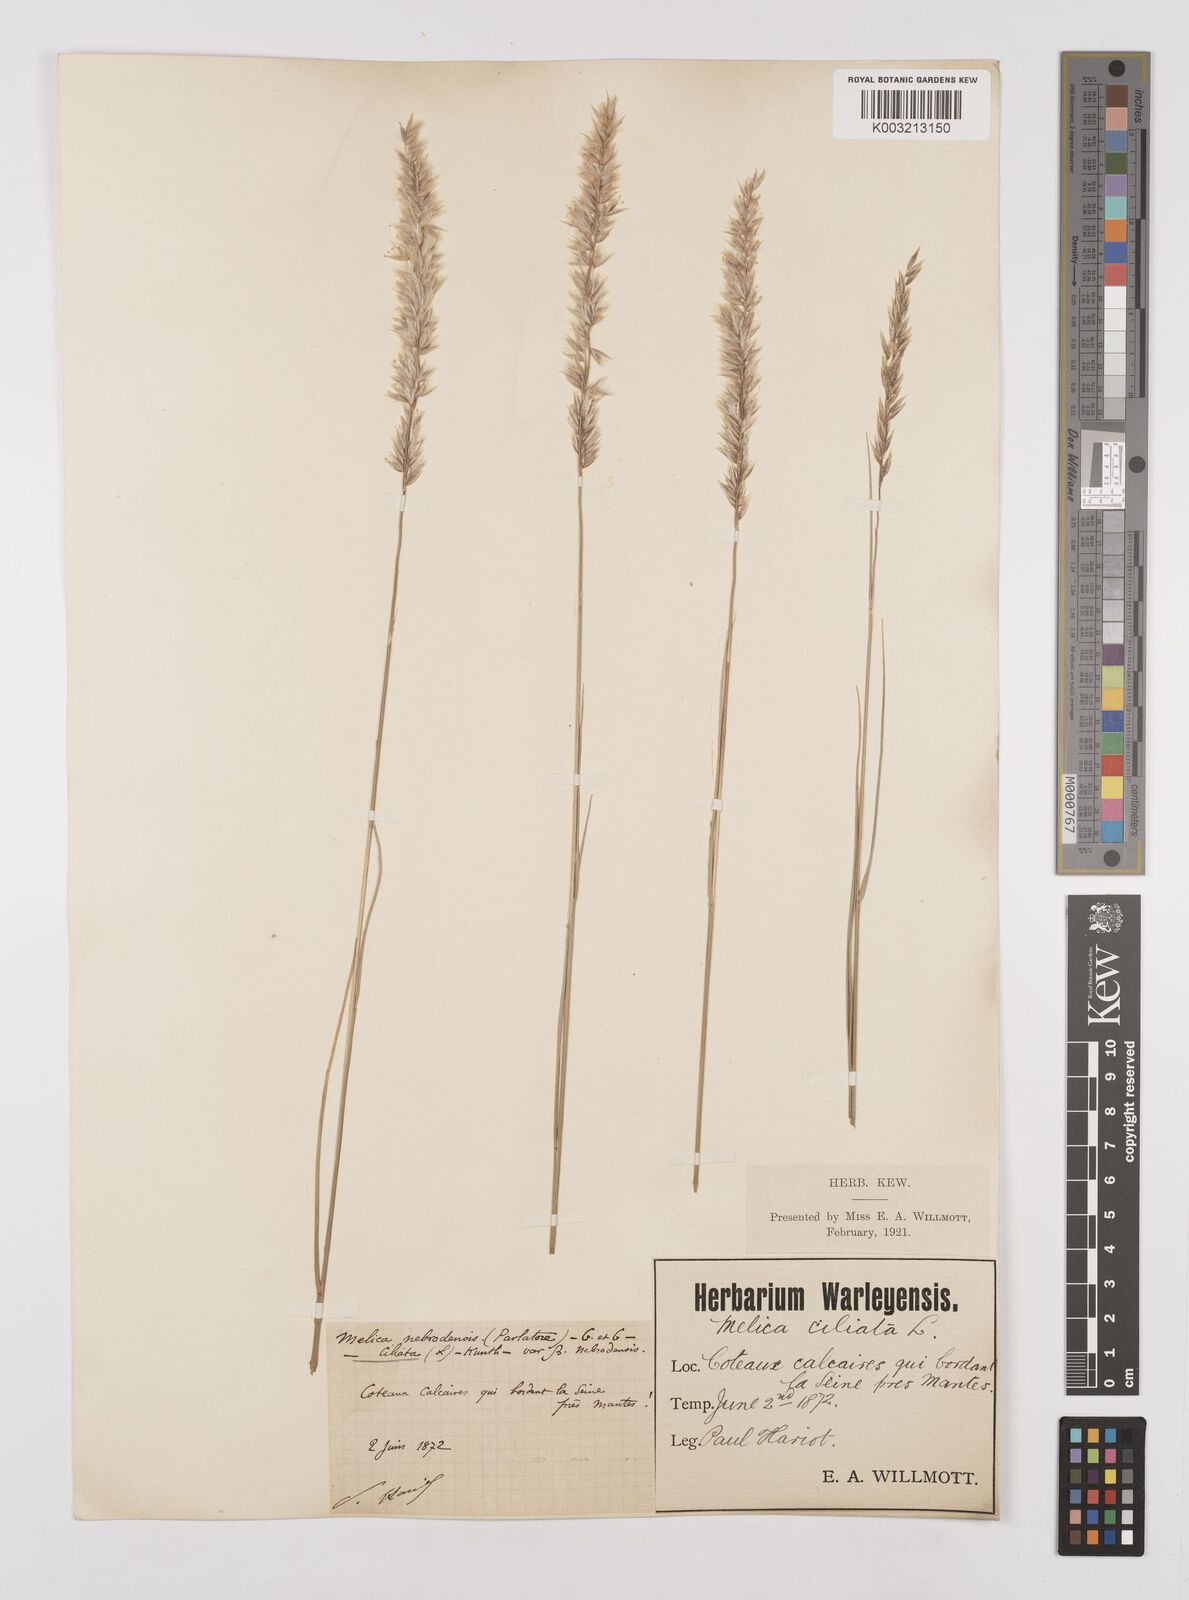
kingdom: Plantae
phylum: Tracheophyta
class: Liliopsida
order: Poales
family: Poaceae
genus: Melica
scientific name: Melica ciliata
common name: Hairy melicgrass
